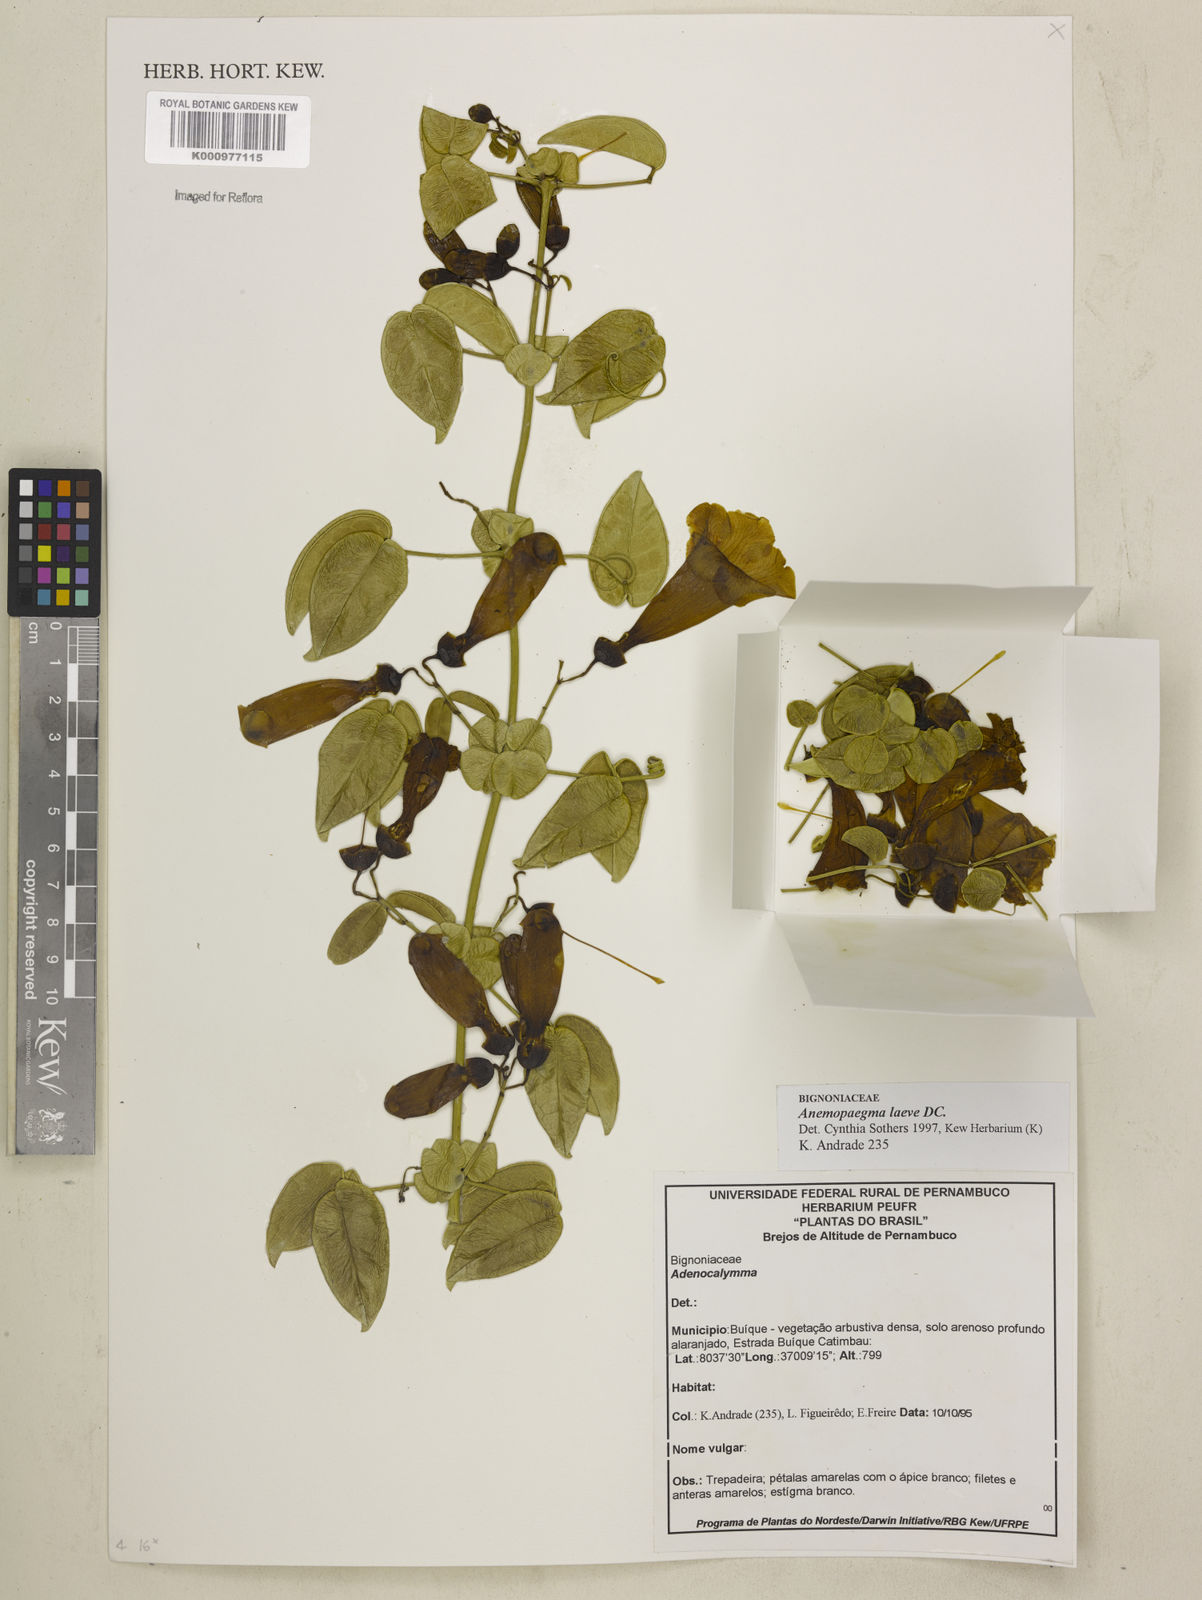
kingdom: Plantae
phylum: Tracheophyta
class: Magnoliopsida
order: Lamiales
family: Bignoniaceae
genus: Anemopaegma
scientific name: Anemopaegma laeve
